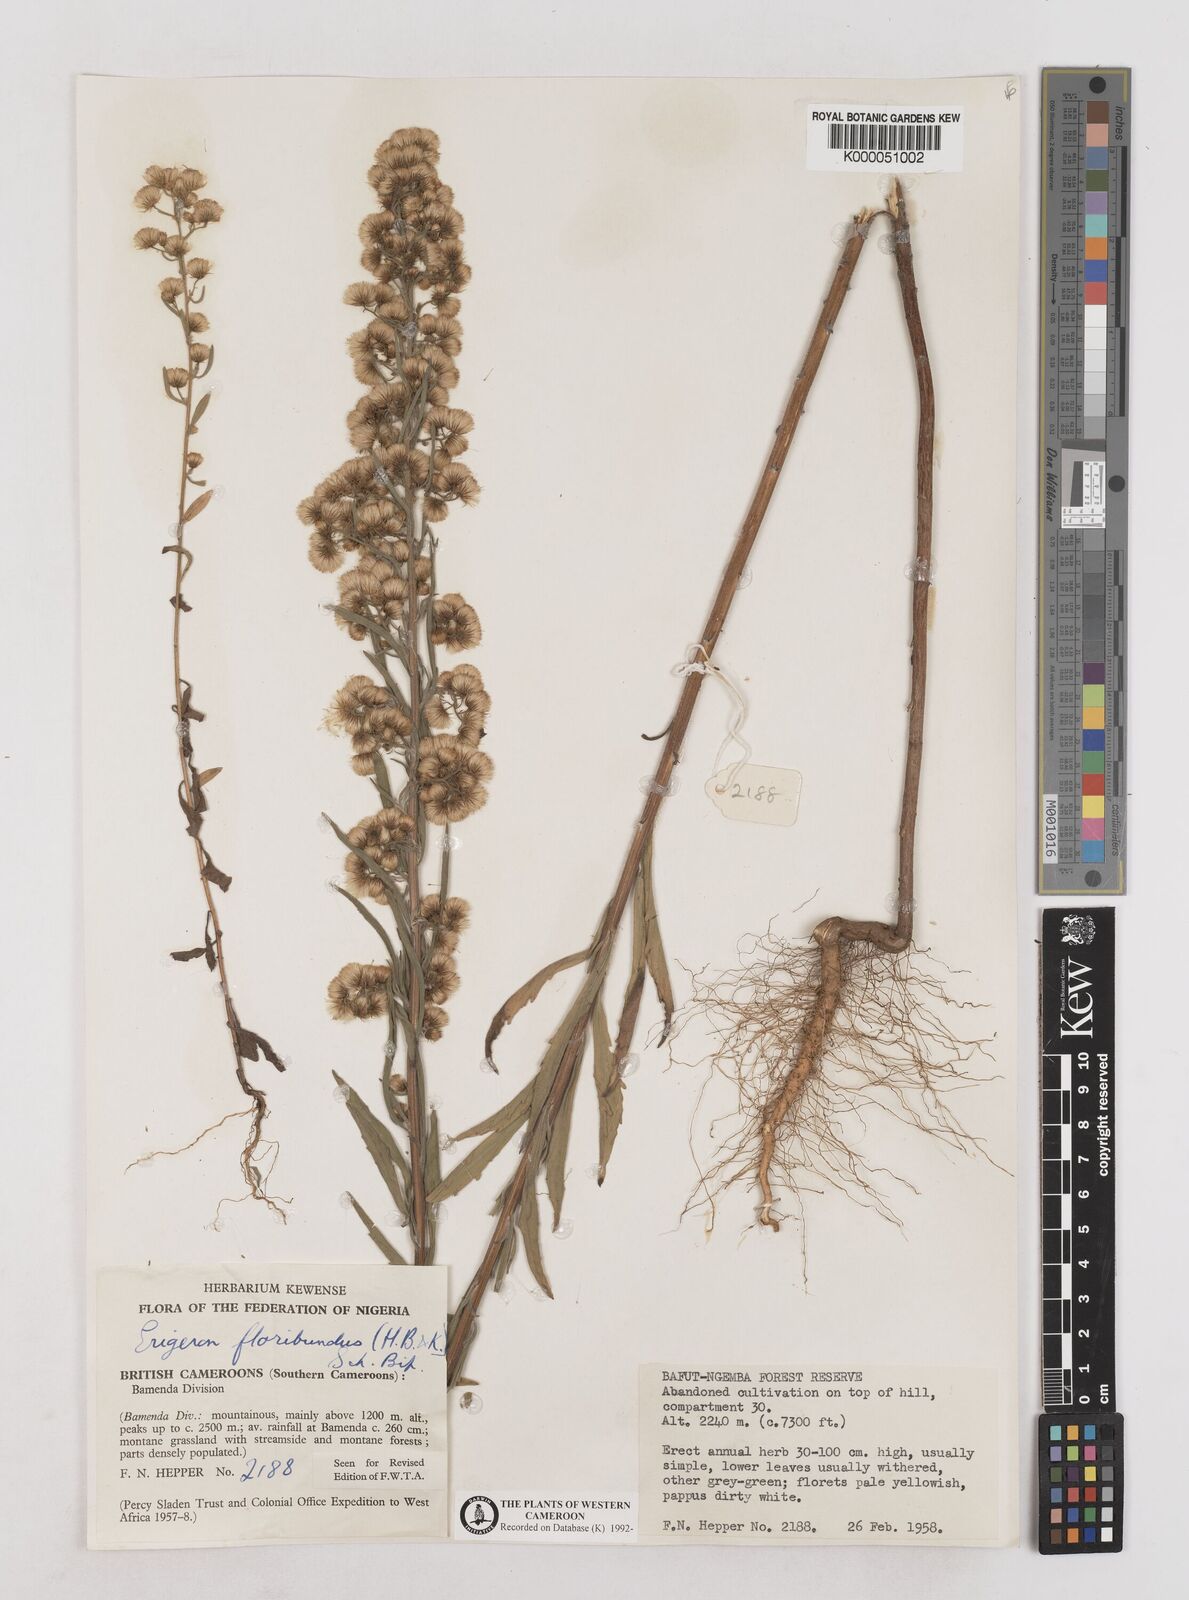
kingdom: Plantae
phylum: Tracheophyta
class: Magnoliopsida
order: Asterales
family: Asteraceae
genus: Erigeron
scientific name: Erigeron bonariensis
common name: Argentine fleabane
